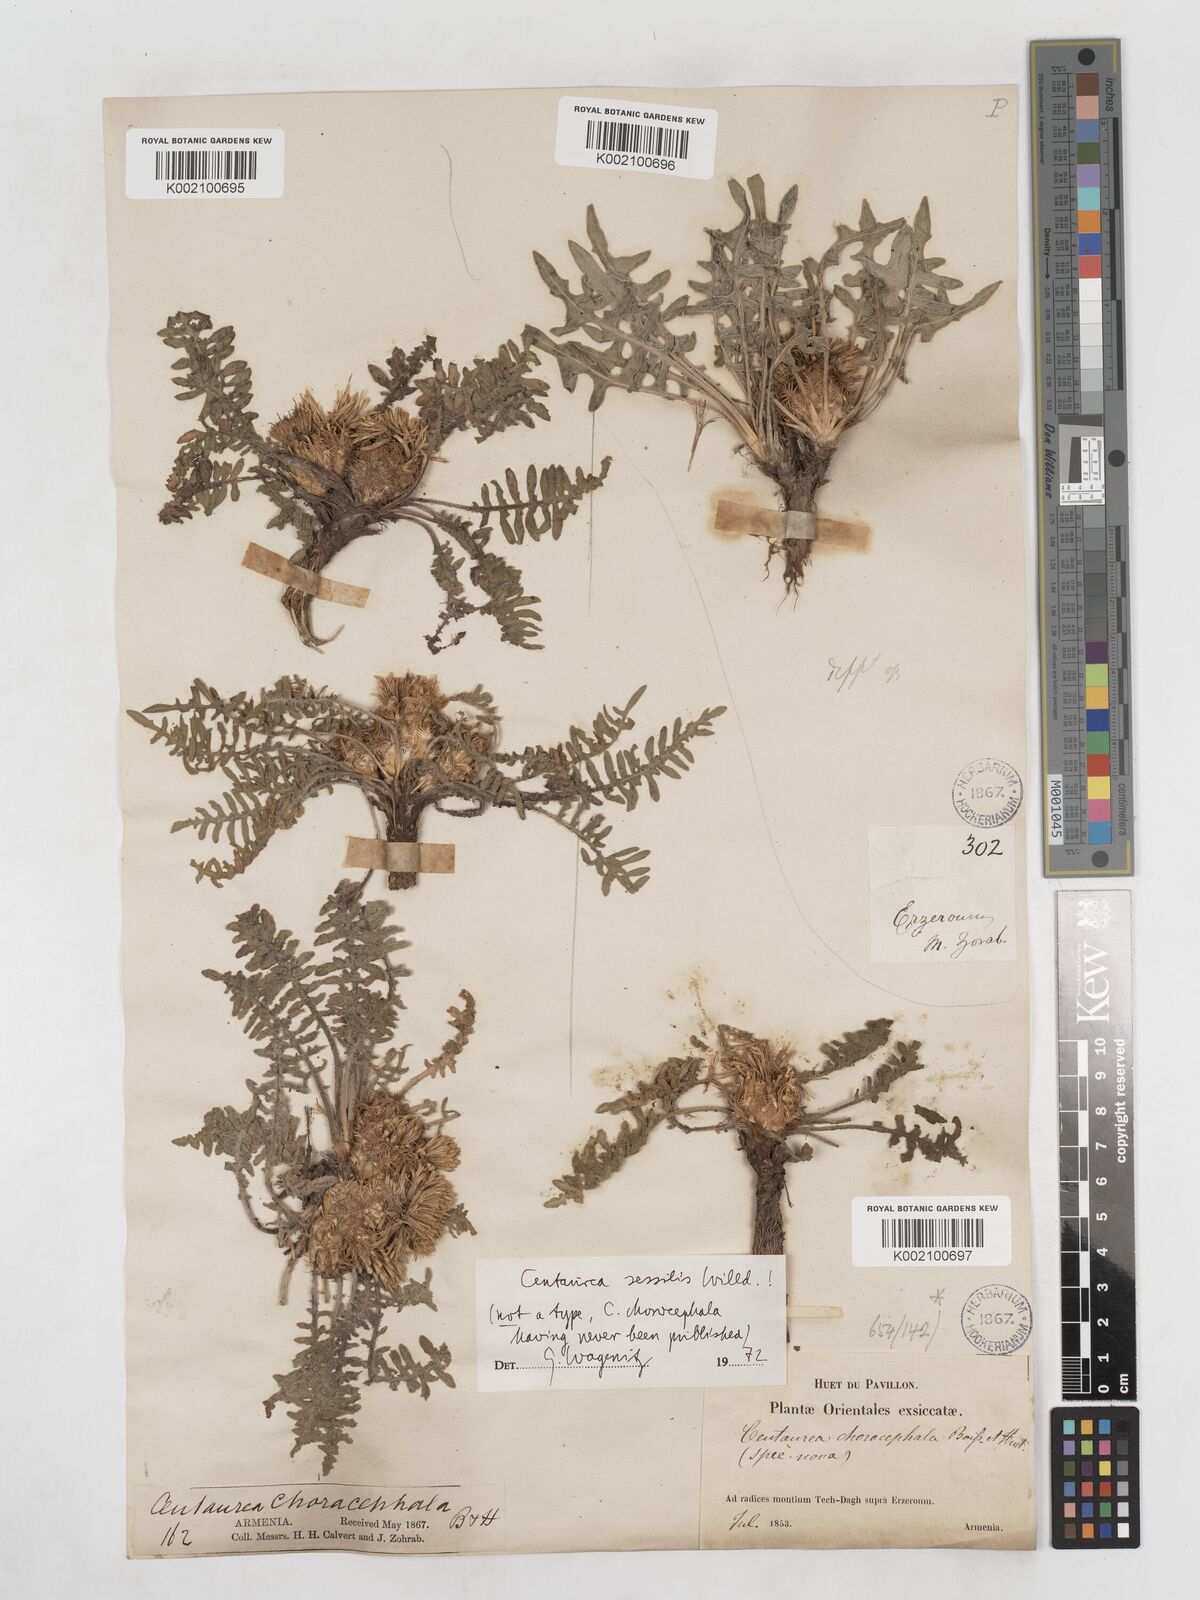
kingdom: Plantae
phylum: Tracheophyta
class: Magnoliopsida
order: Asterales
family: Asteraceae
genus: Centaurea
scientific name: Centaurea oltensis
